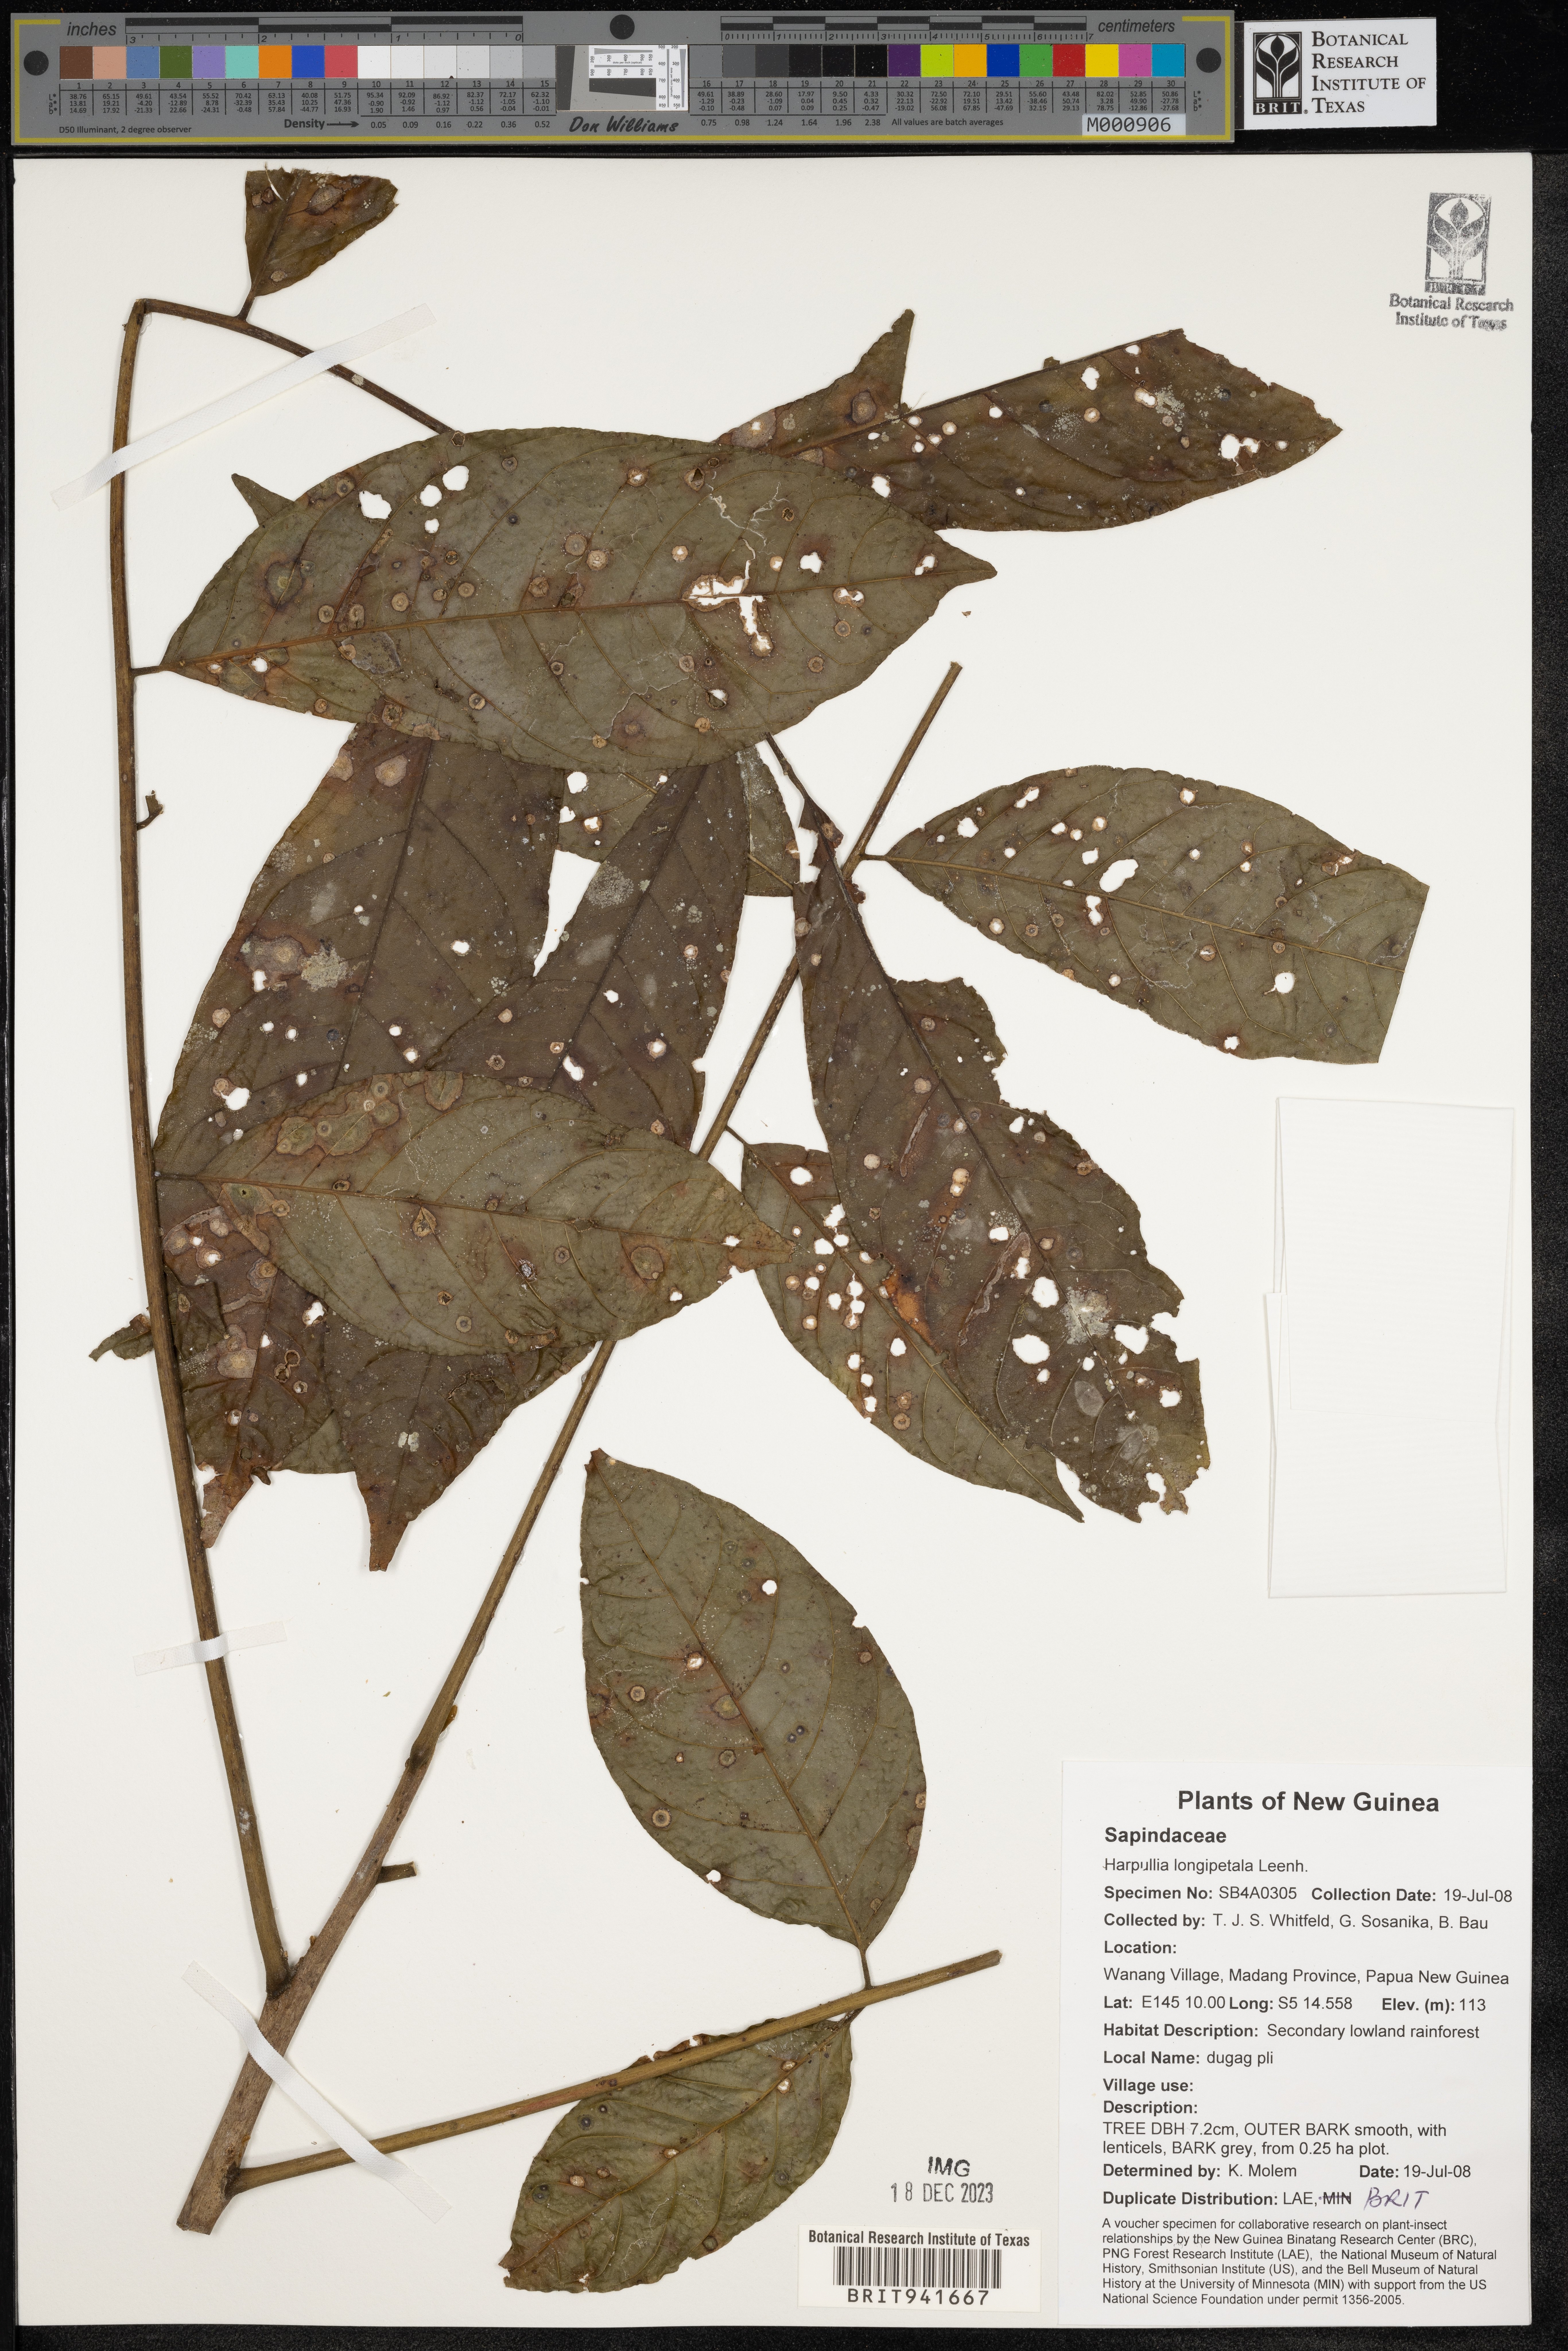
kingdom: Plantae
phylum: Tracheophyta
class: Magnoliopsida
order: Sapindales
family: Sapindaceae
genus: Harpullia
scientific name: Harpullia
